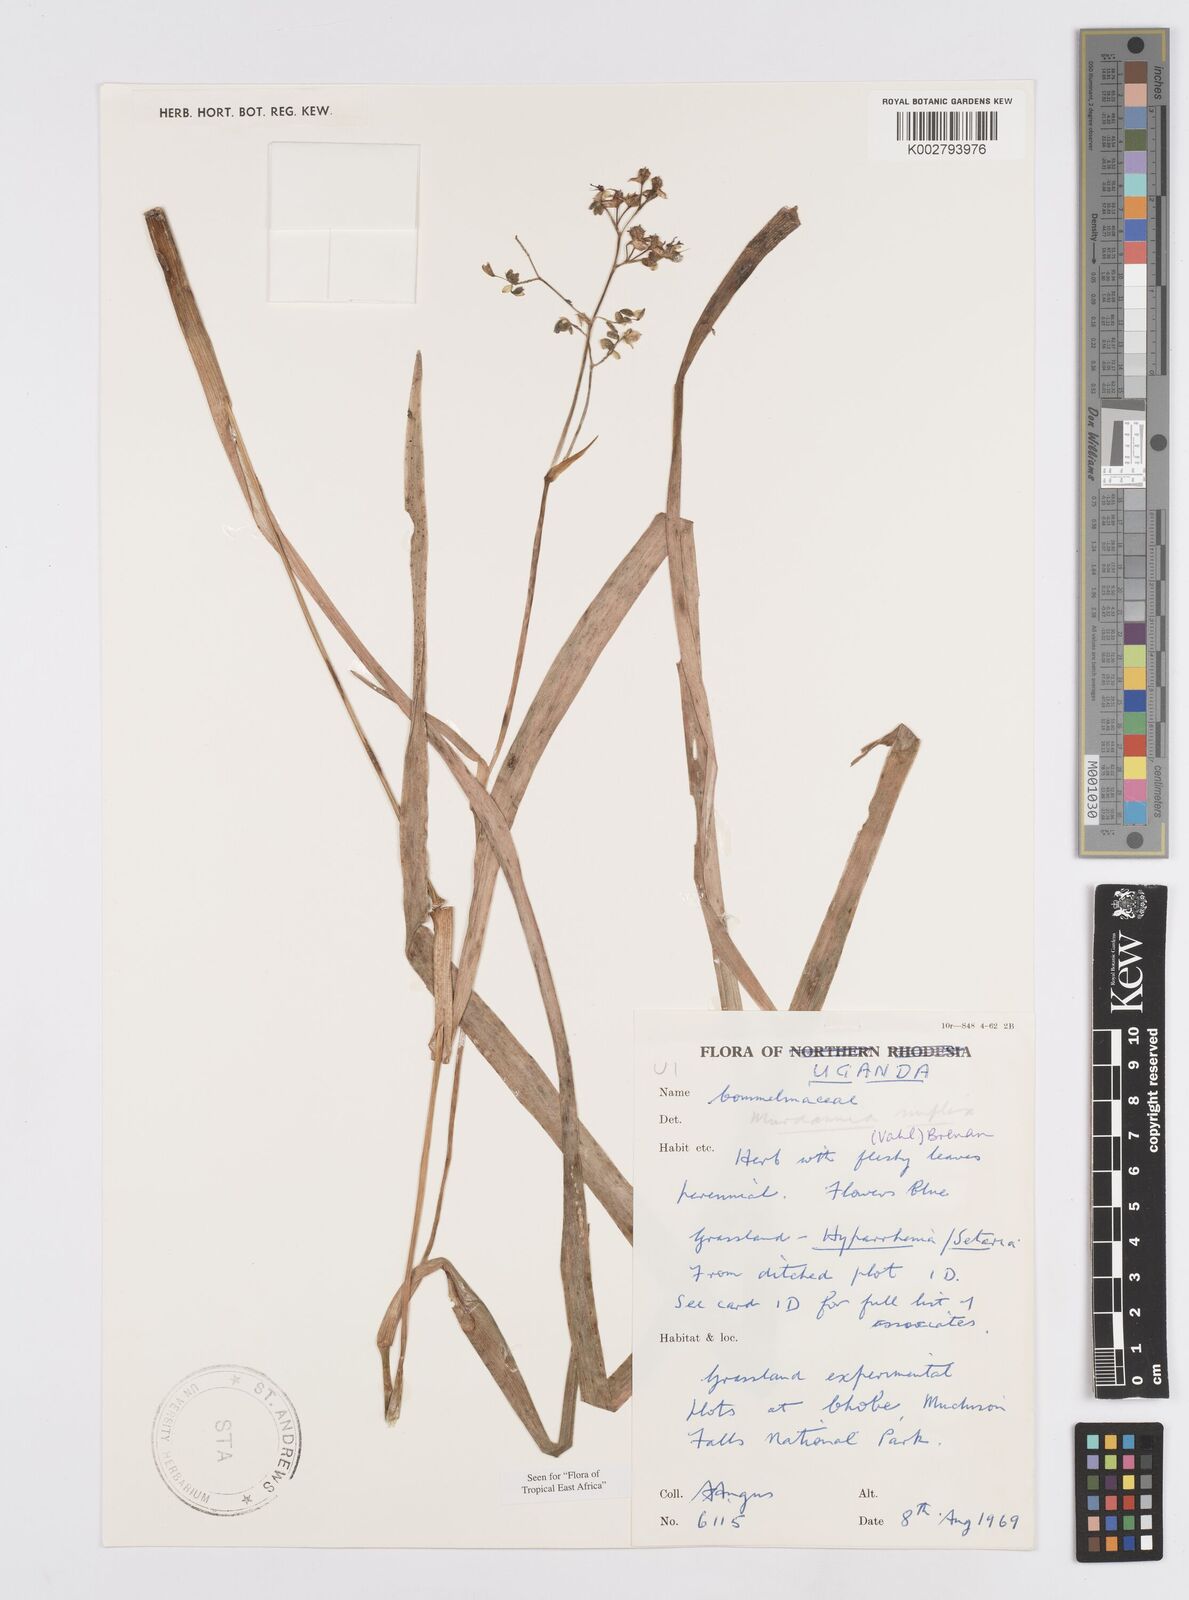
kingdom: Plantae
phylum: Tracheophyta
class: Liliopsida
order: Commelinales
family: Commelinaceae
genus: Murdannia
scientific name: Murdannia simplex
